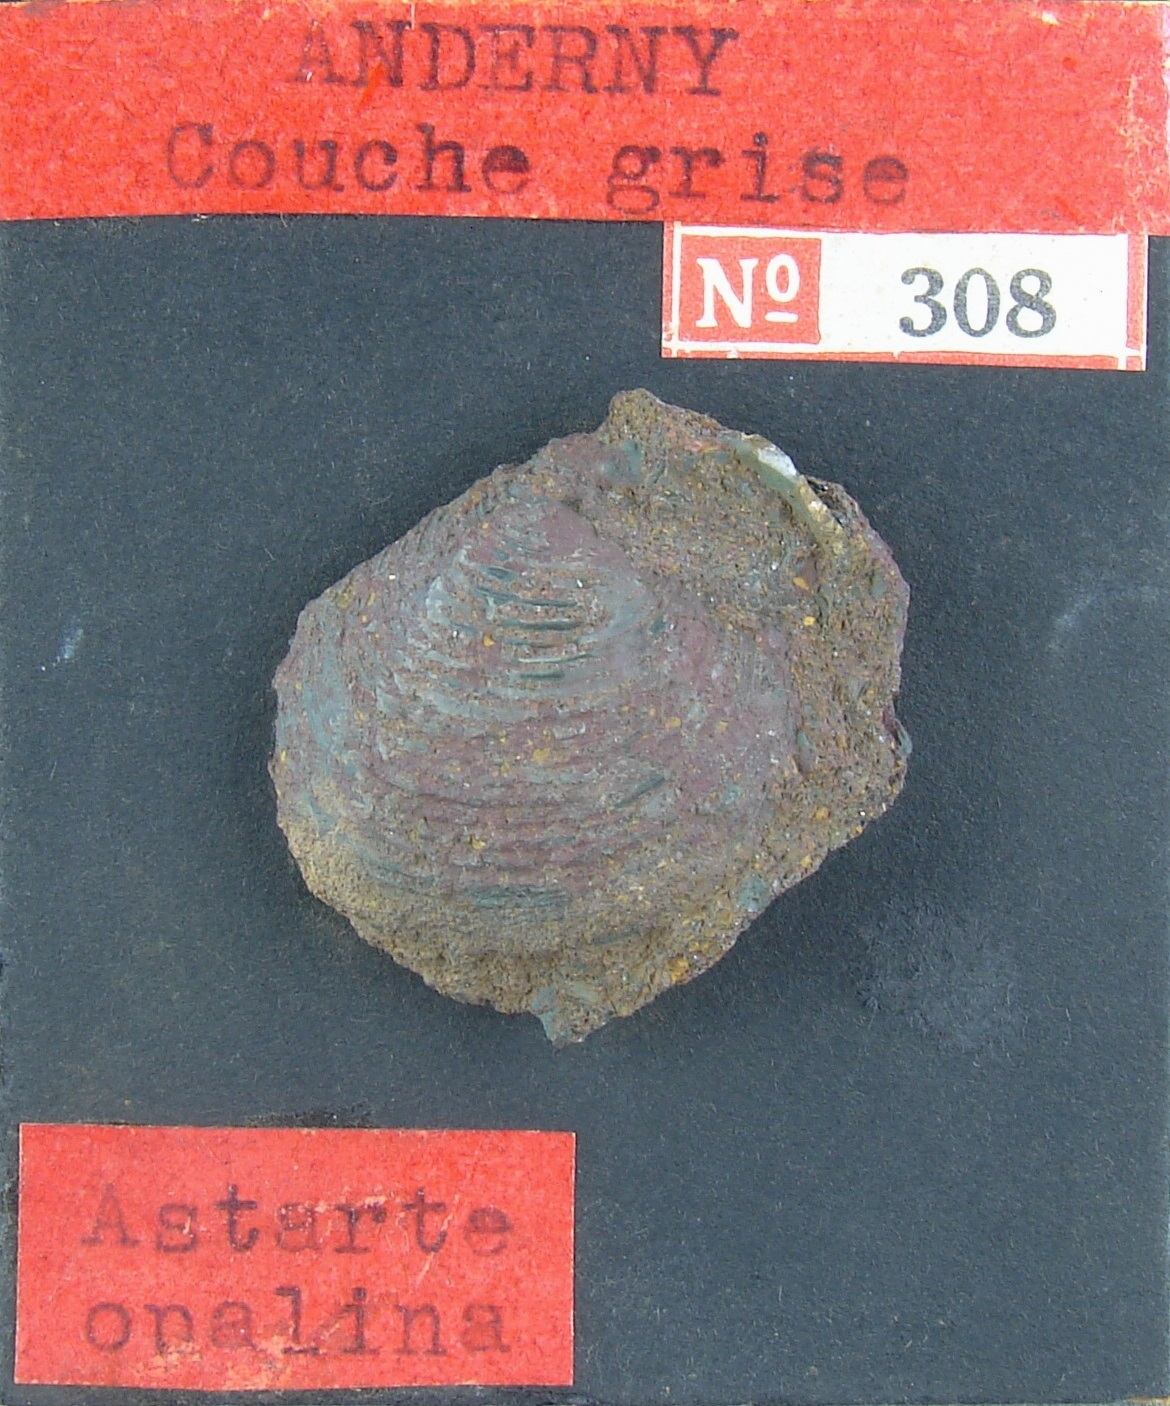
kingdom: Animalia
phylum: Mollusca
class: Bivalvia
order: Carditida
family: Astartidae
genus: Astarte
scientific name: Astarte
